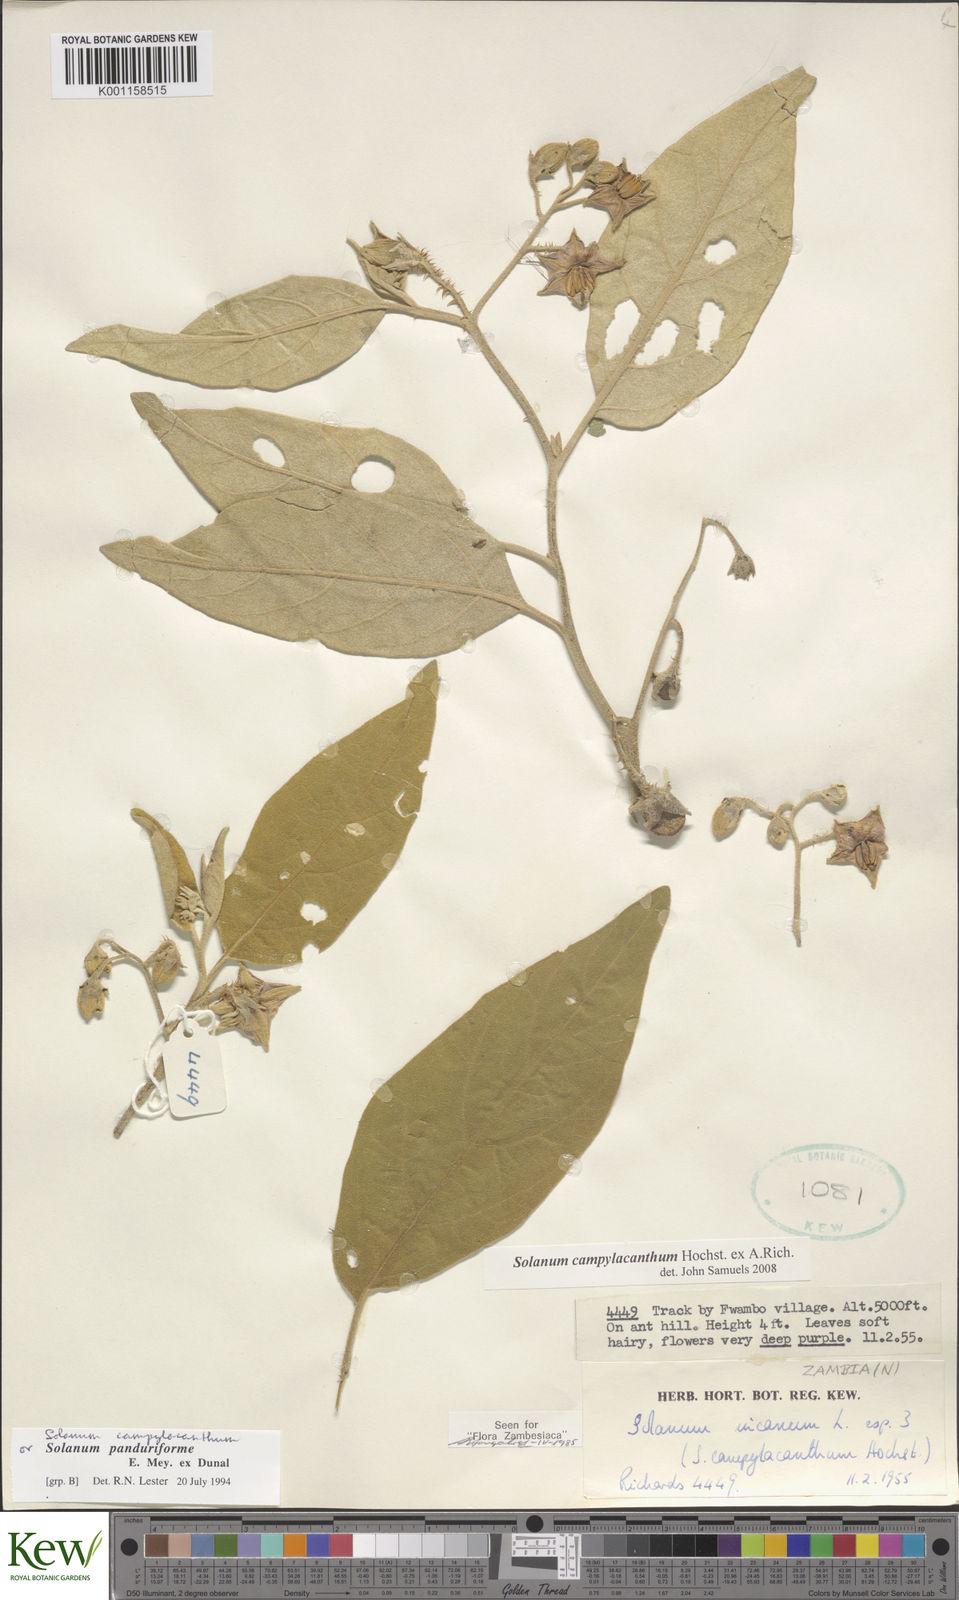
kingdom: Plantae
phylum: Tracheophyta
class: Magnoliopsida
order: Solanales
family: Solanaceae
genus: Solanum
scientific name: Solanum campylacanthum
